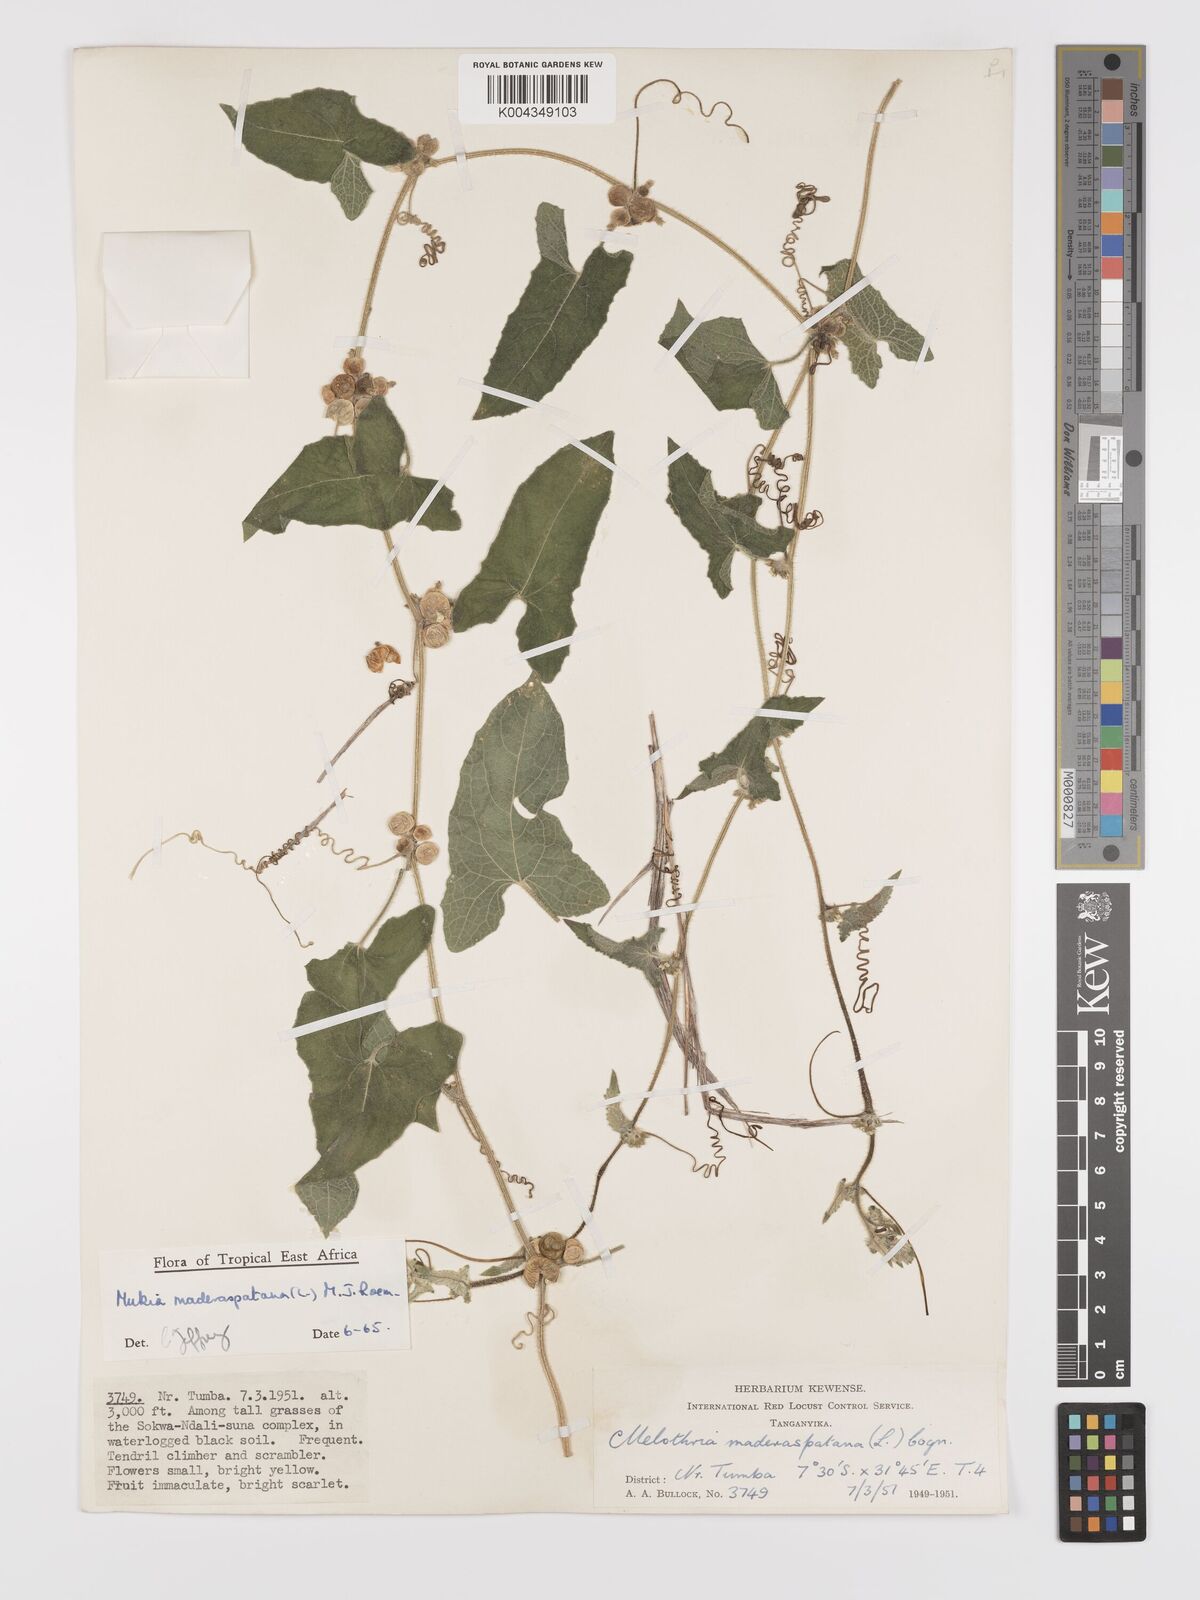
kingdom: Plantae
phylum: Tracheophyta
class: Magnoliopsida
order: Cucurbitales
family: Cucurbitaceae
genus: Cucumis
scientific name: Cucumis maderaspatanus
